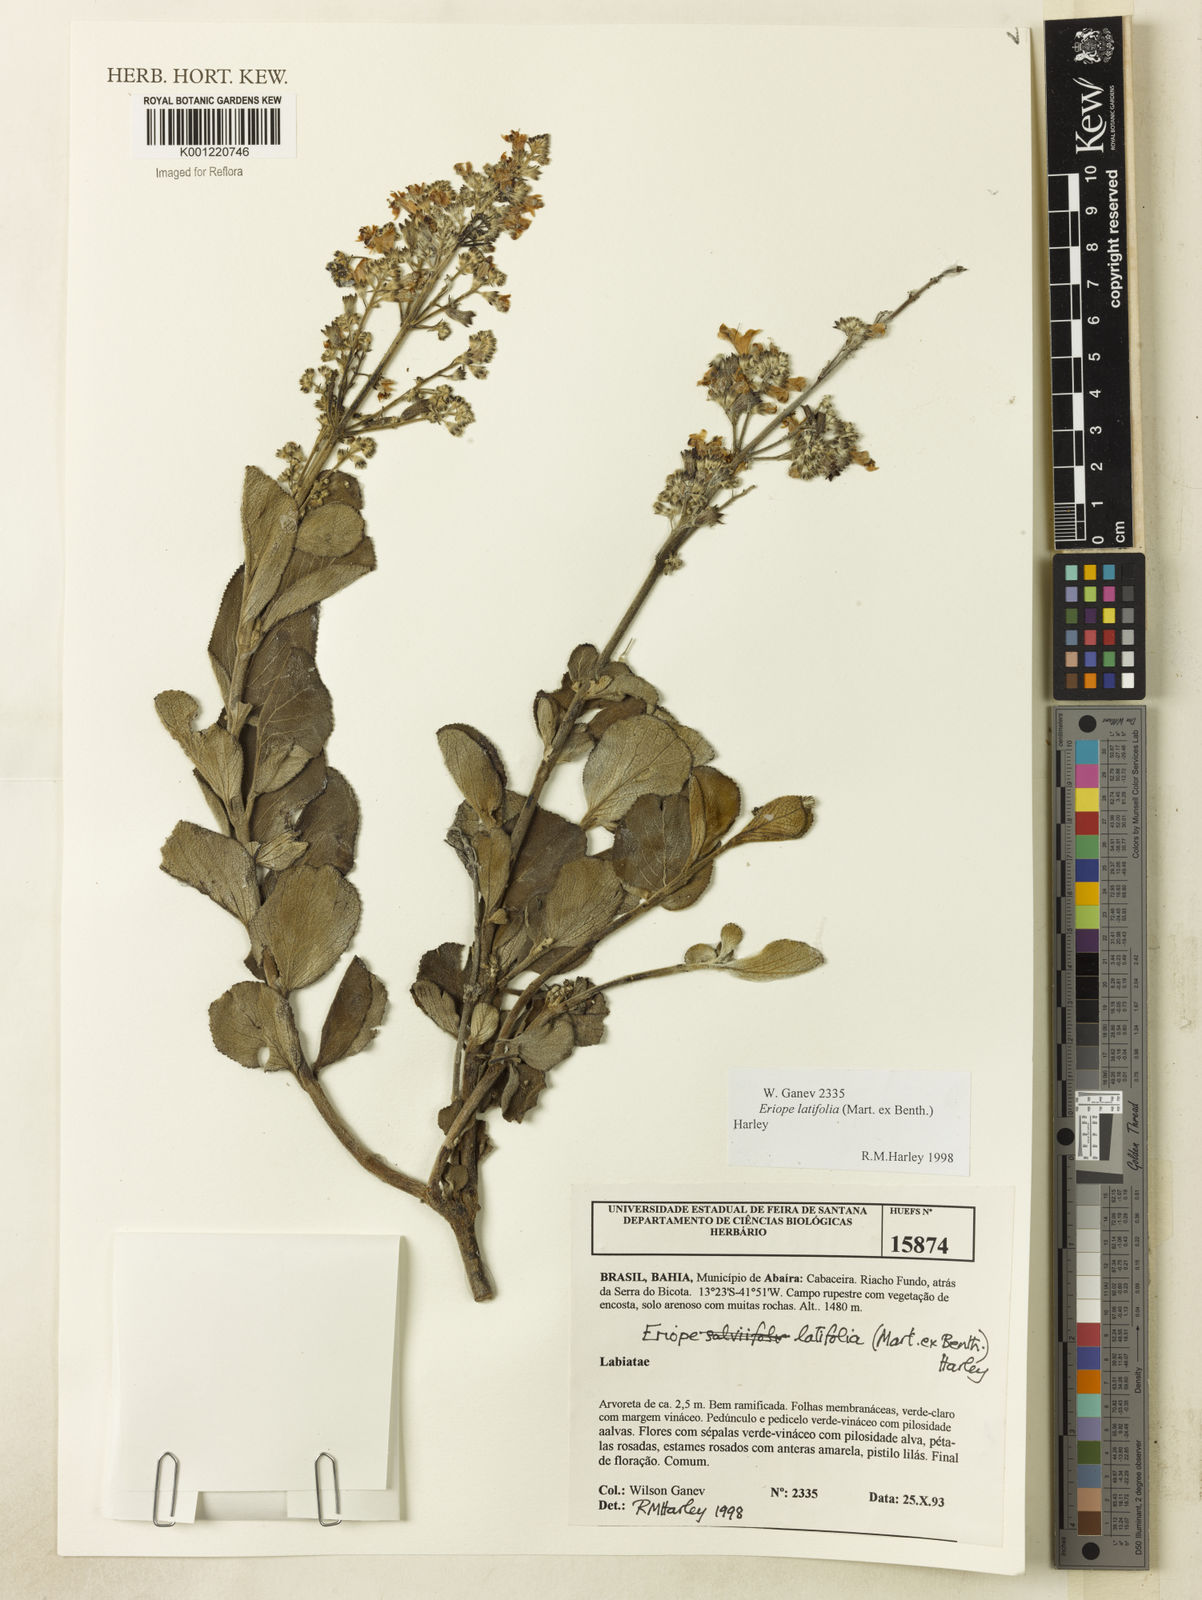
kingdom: Plantae
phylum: Tracheophyta
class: Magnoliopsida
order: Lamiales
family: Lamiaceae
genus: Eriope
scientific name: Eriope latifolia
